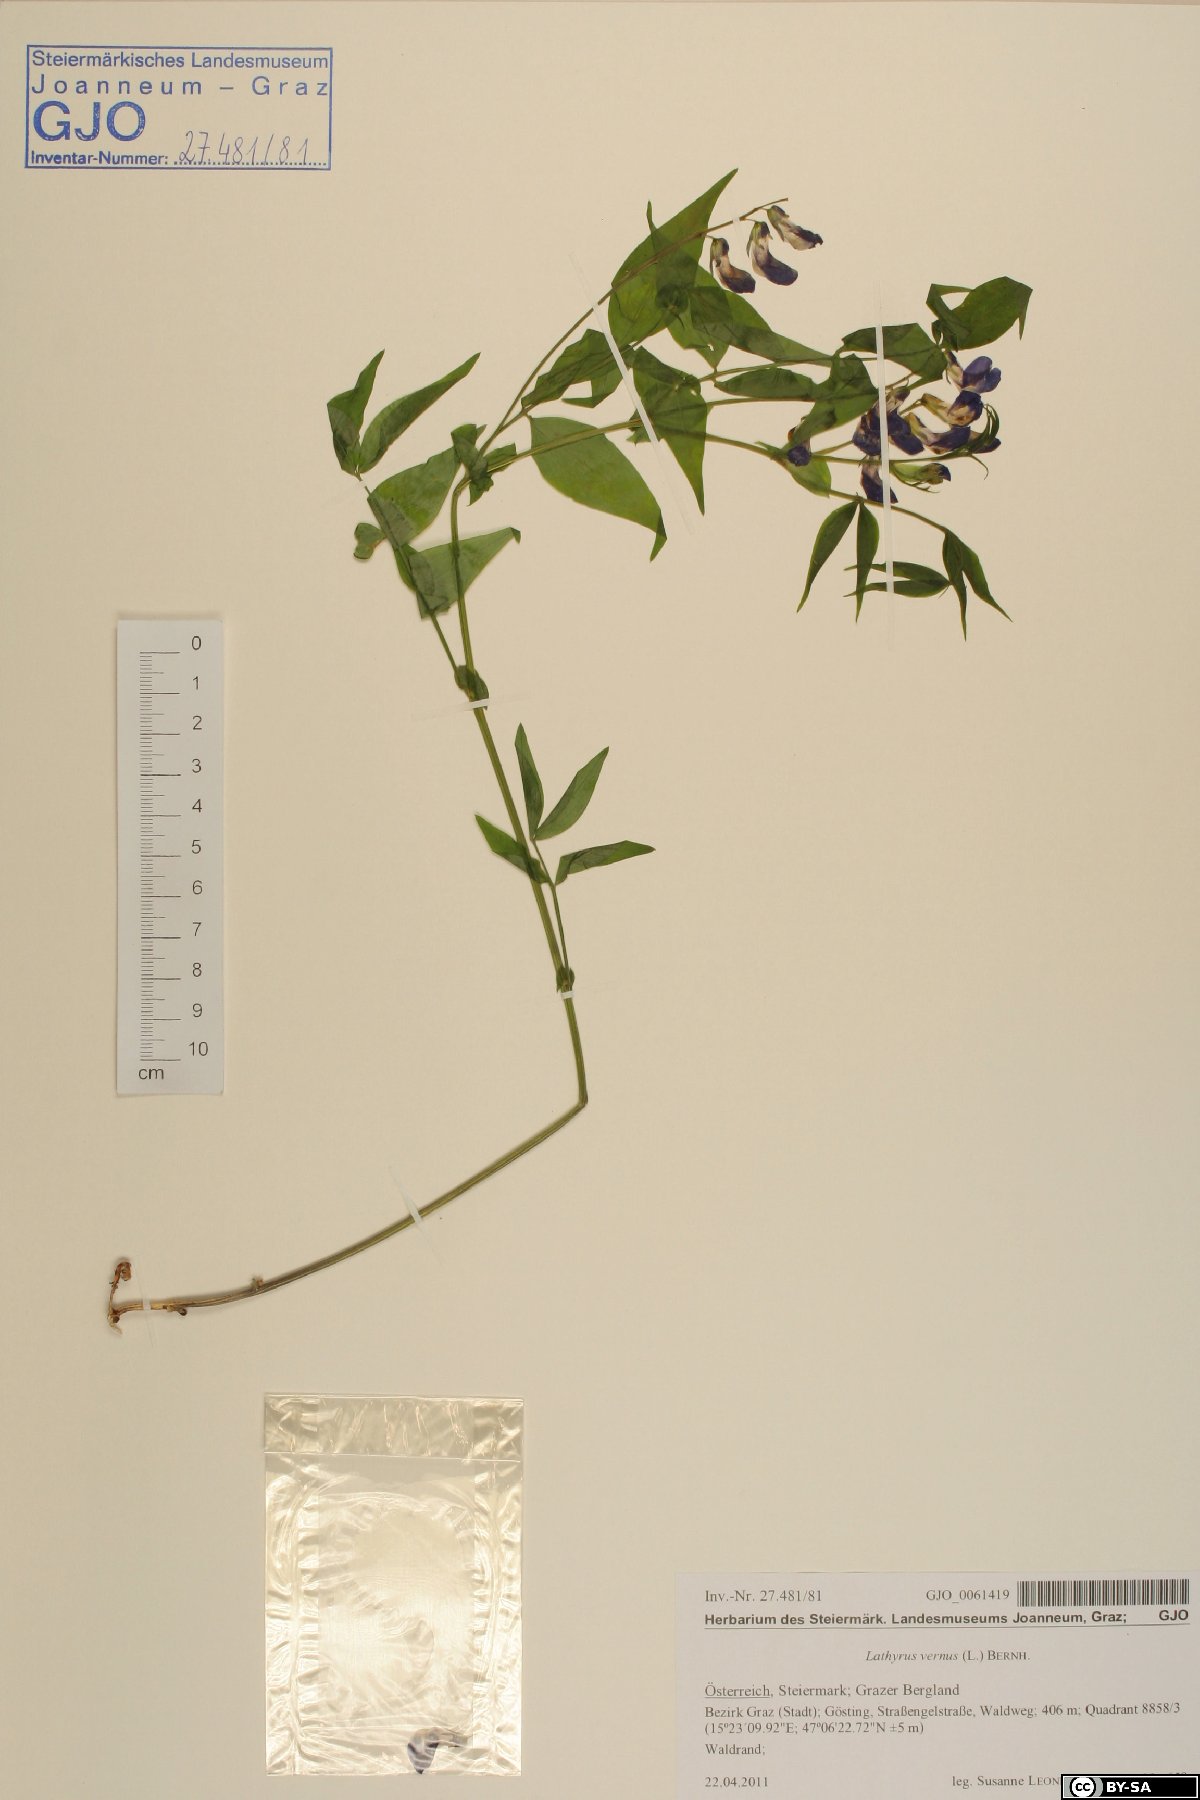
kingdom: Plantae
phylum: Tracheophyta
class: Magnoliopsida
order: Fabales
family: Fabaceae
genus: Lathyrus
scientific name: Lathyrus vernus
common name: Spring pea
